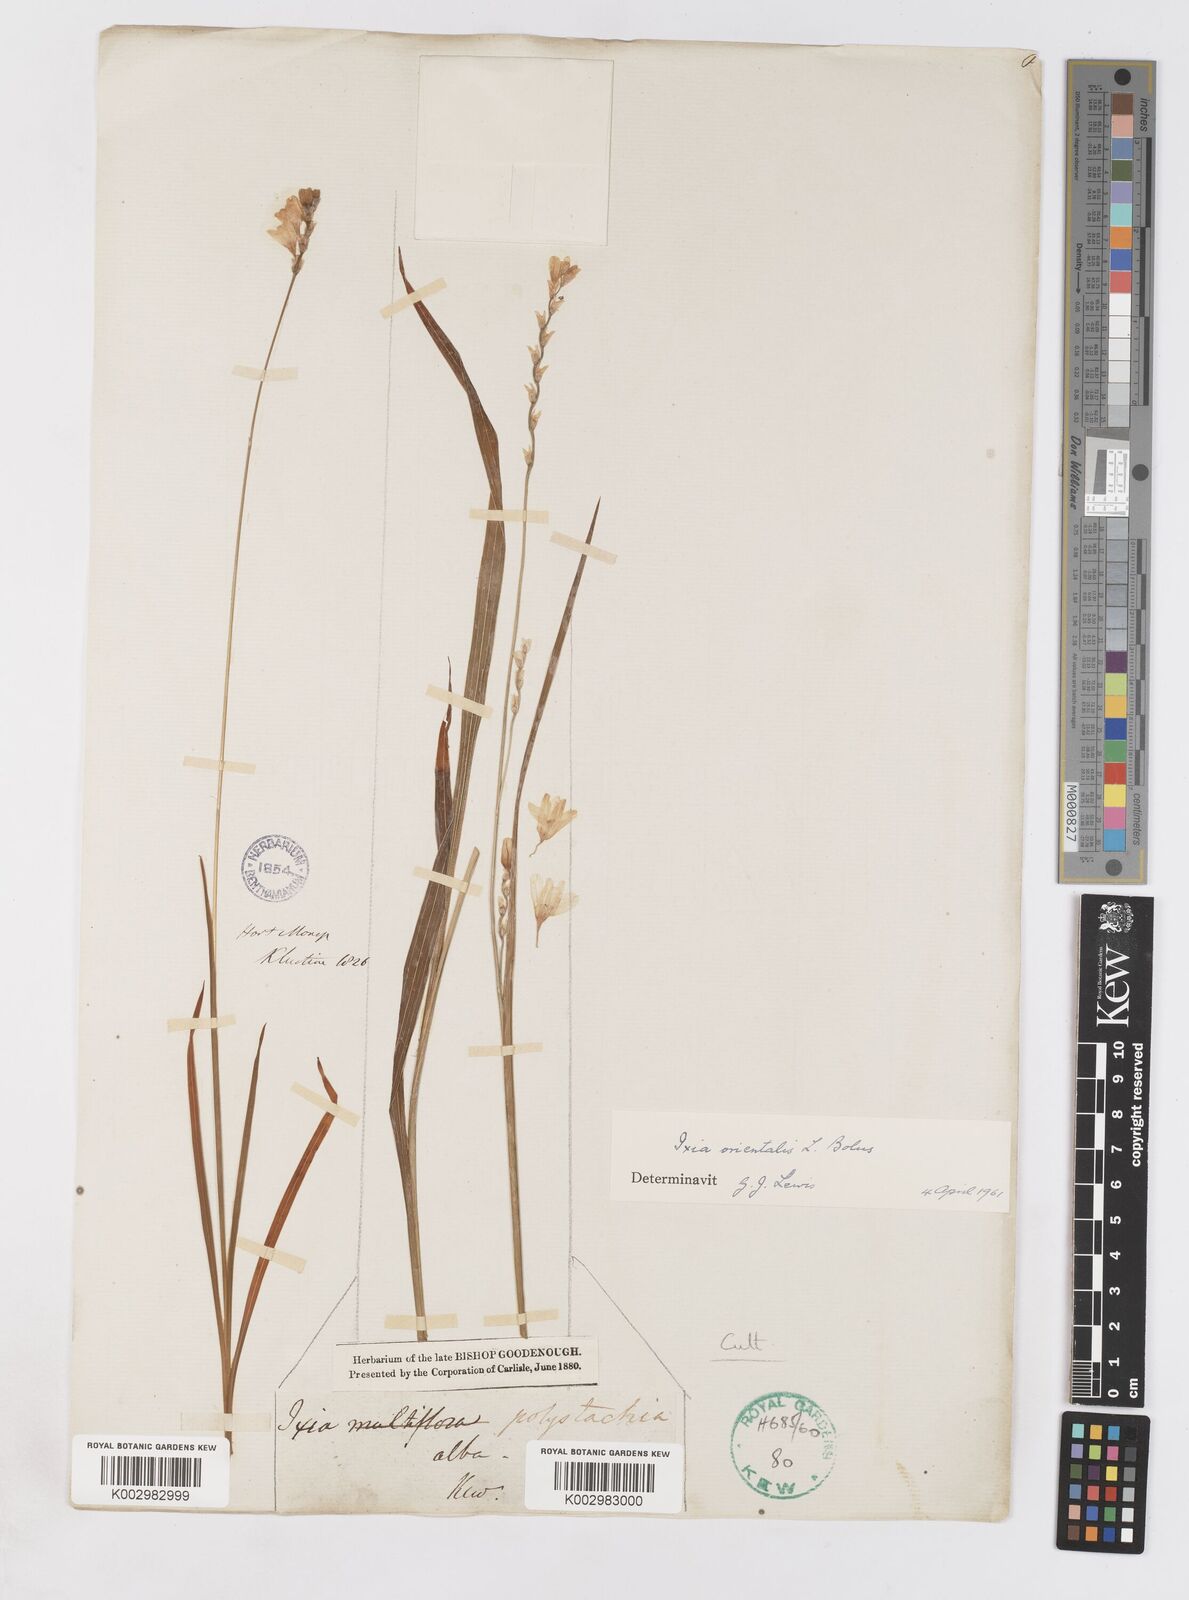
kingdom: Plantae
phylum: Tracheophyta
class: Liliopsida
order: Asparagales
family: Iridaceae
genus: Ixia
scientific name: Ixia orientalis
